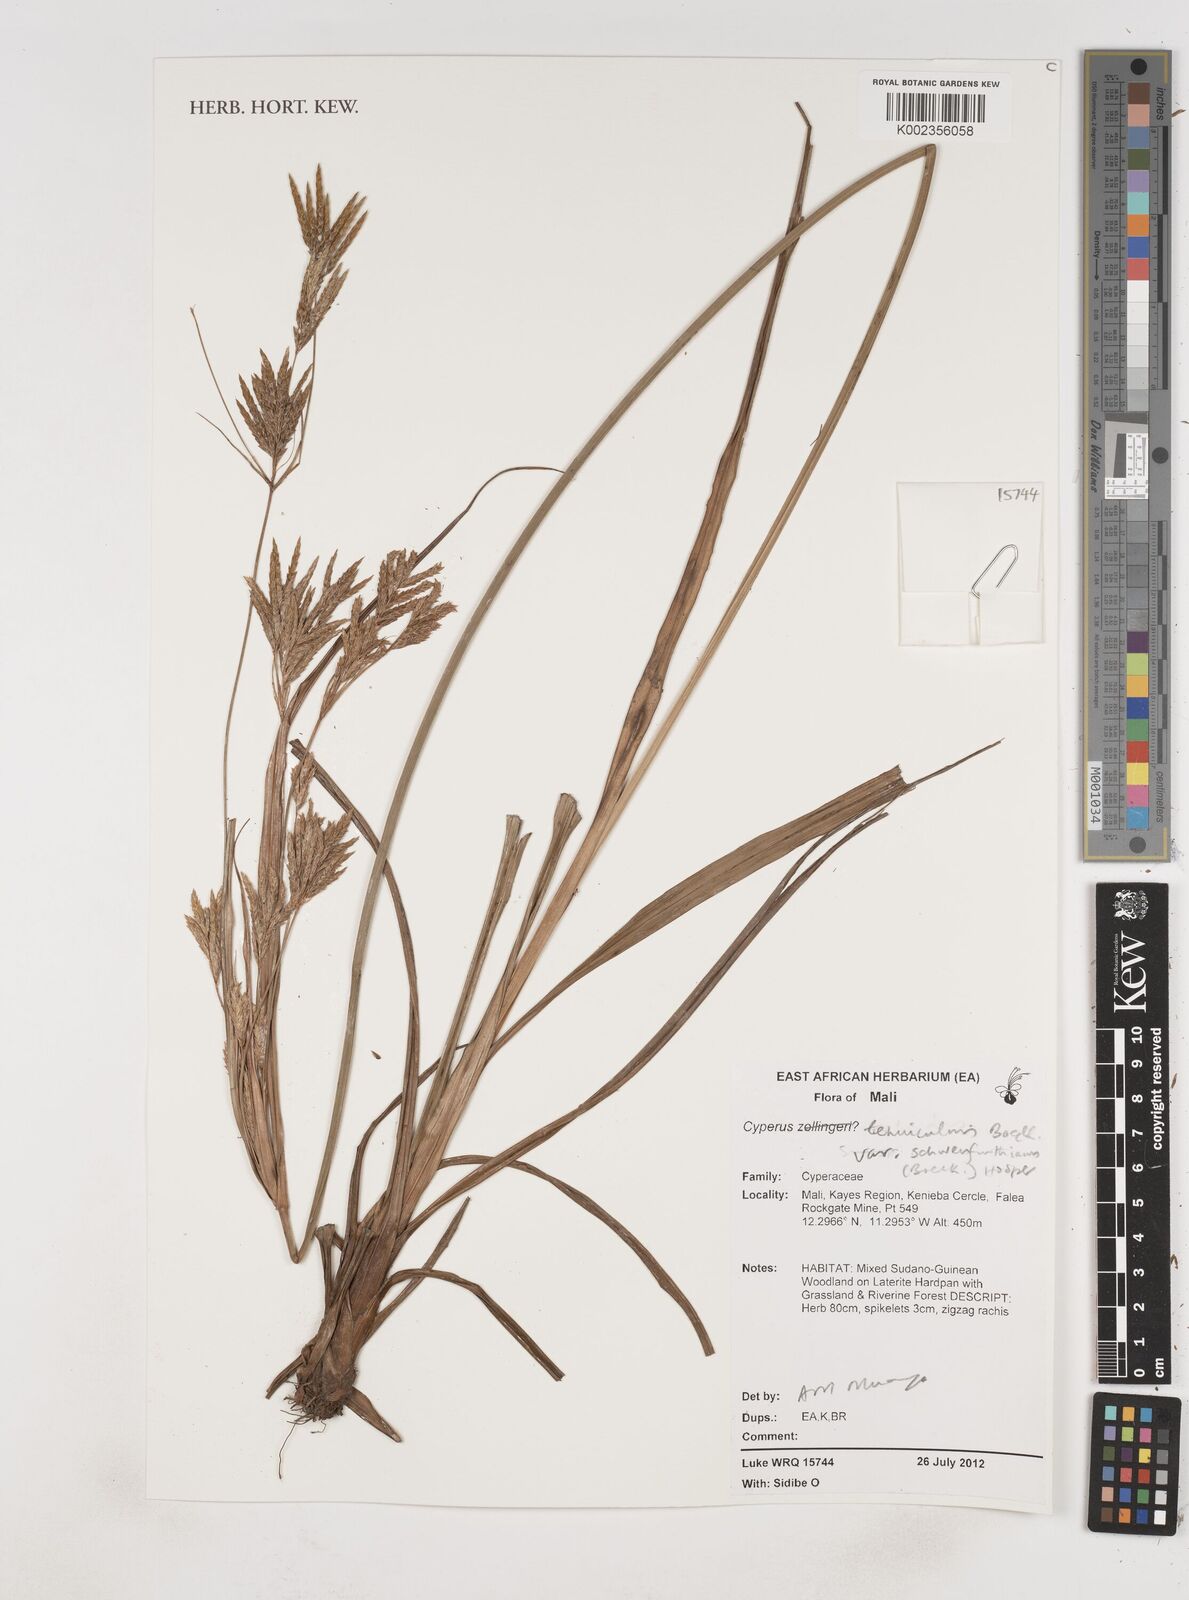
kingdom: Plantae
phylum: Tracheophyta
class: Liliopsida
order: Poales
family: Cyperaceae
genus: Cyperus
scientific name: Cyperus tenuiculmis
